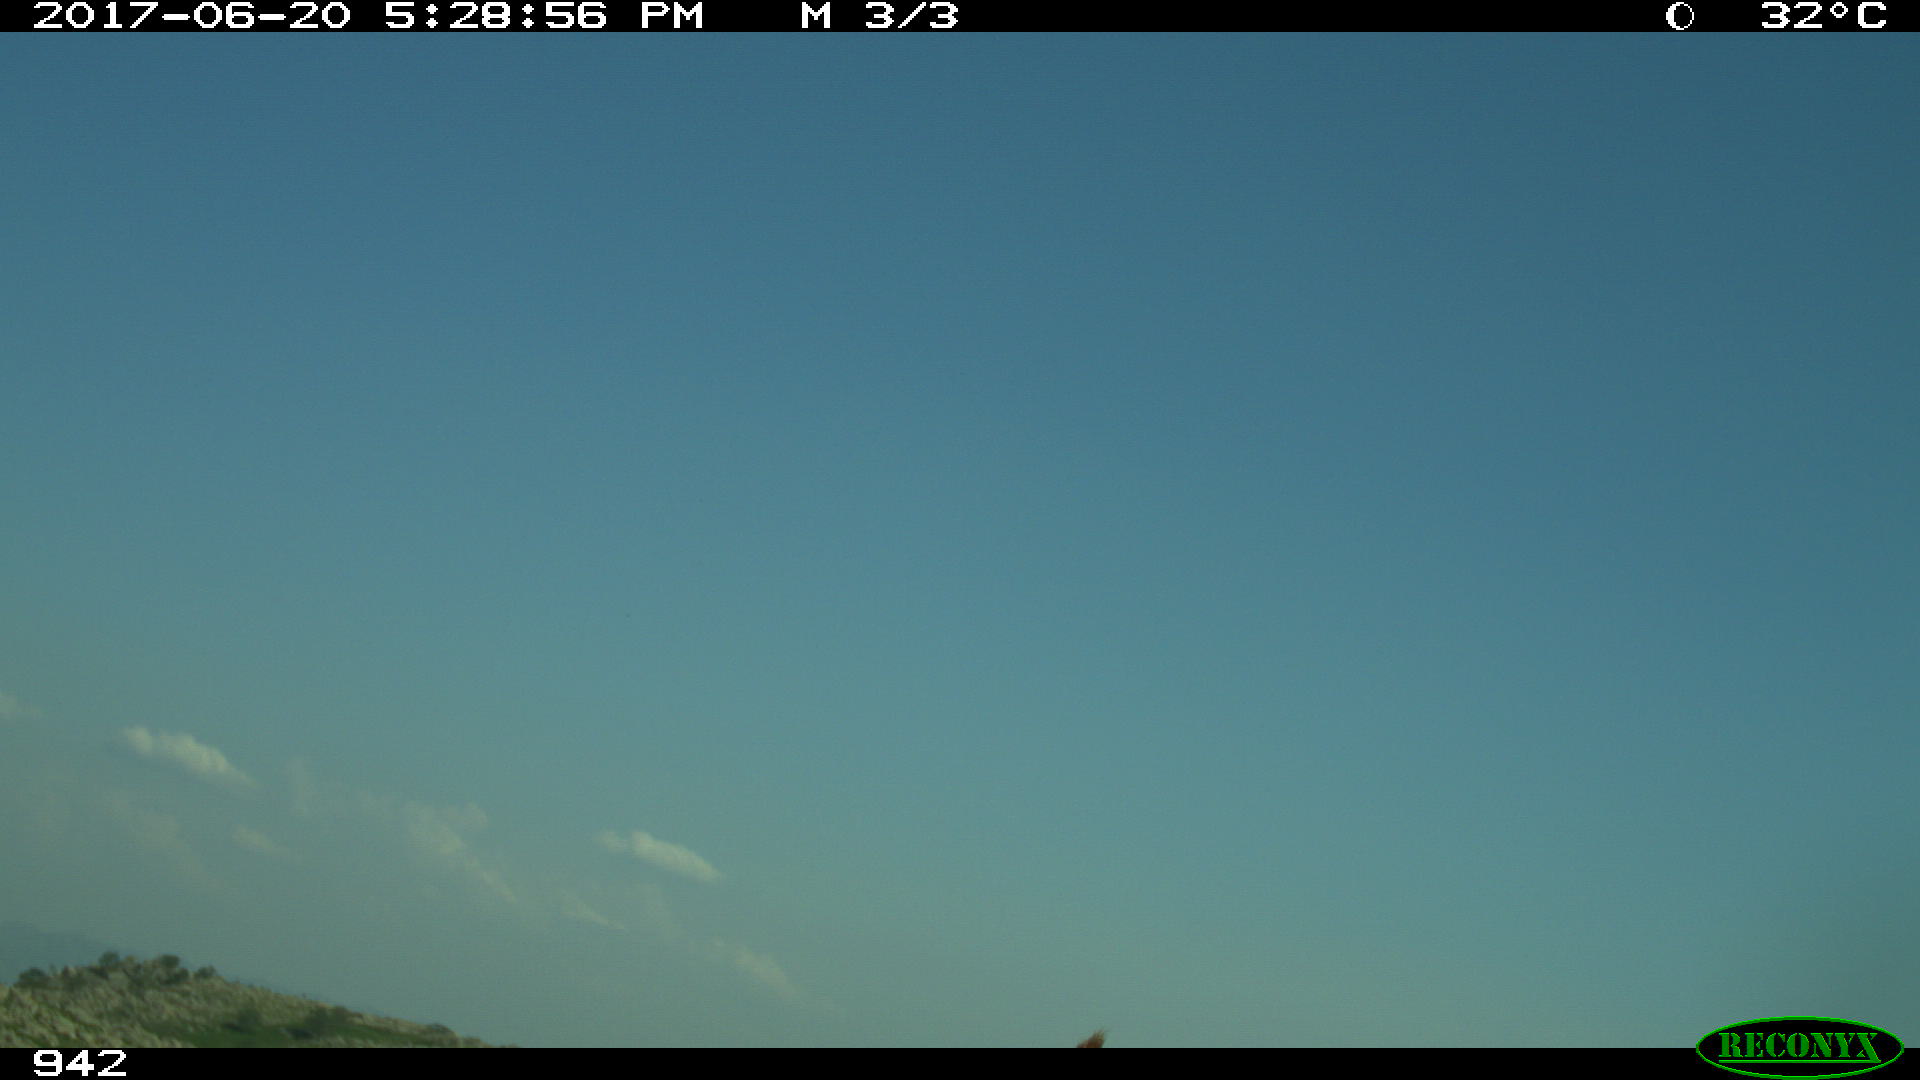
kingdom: Animalia
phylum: Chordata
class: Mammalia
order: Artiodactyla
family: Bovidae
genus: Bos
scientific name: Bos taurus
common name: Domesticated cattle
